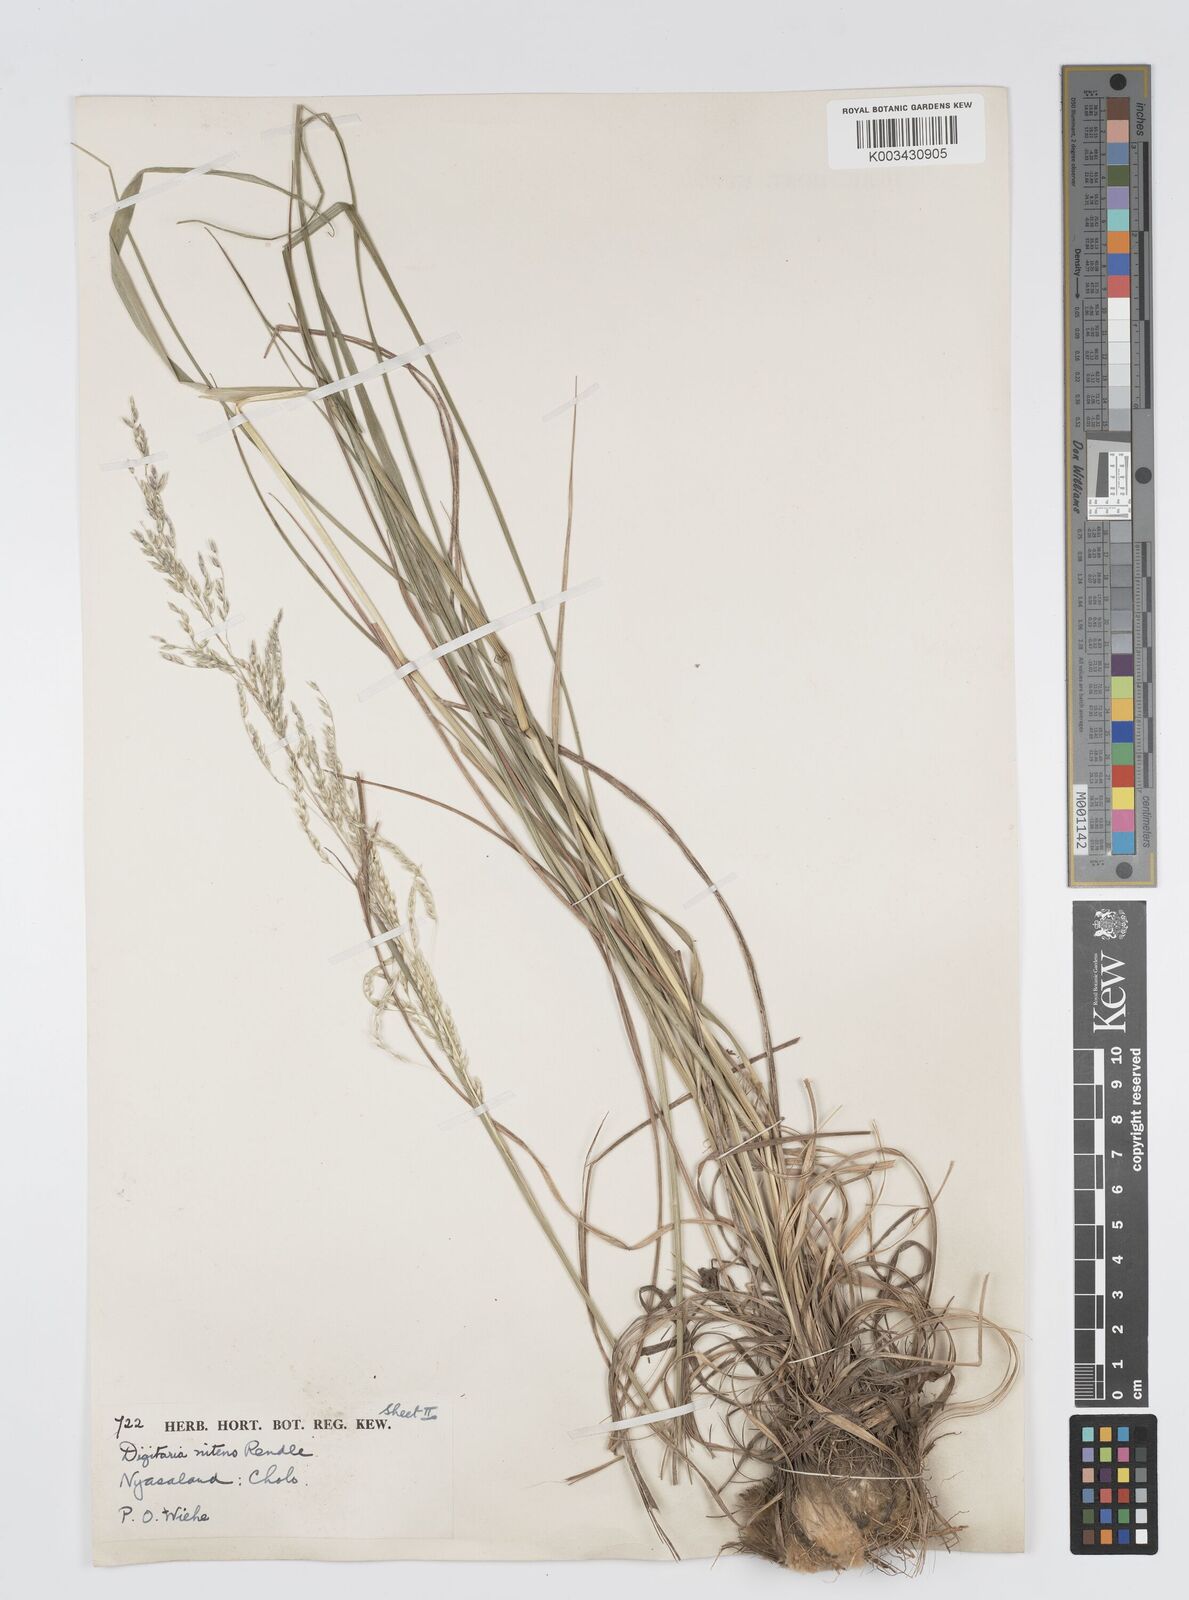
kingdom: Plantae
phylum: Tracheophyta
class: Liliopsida
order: Poales
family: Poaceae
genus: Digitaria
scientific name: Digitaria flaccida
